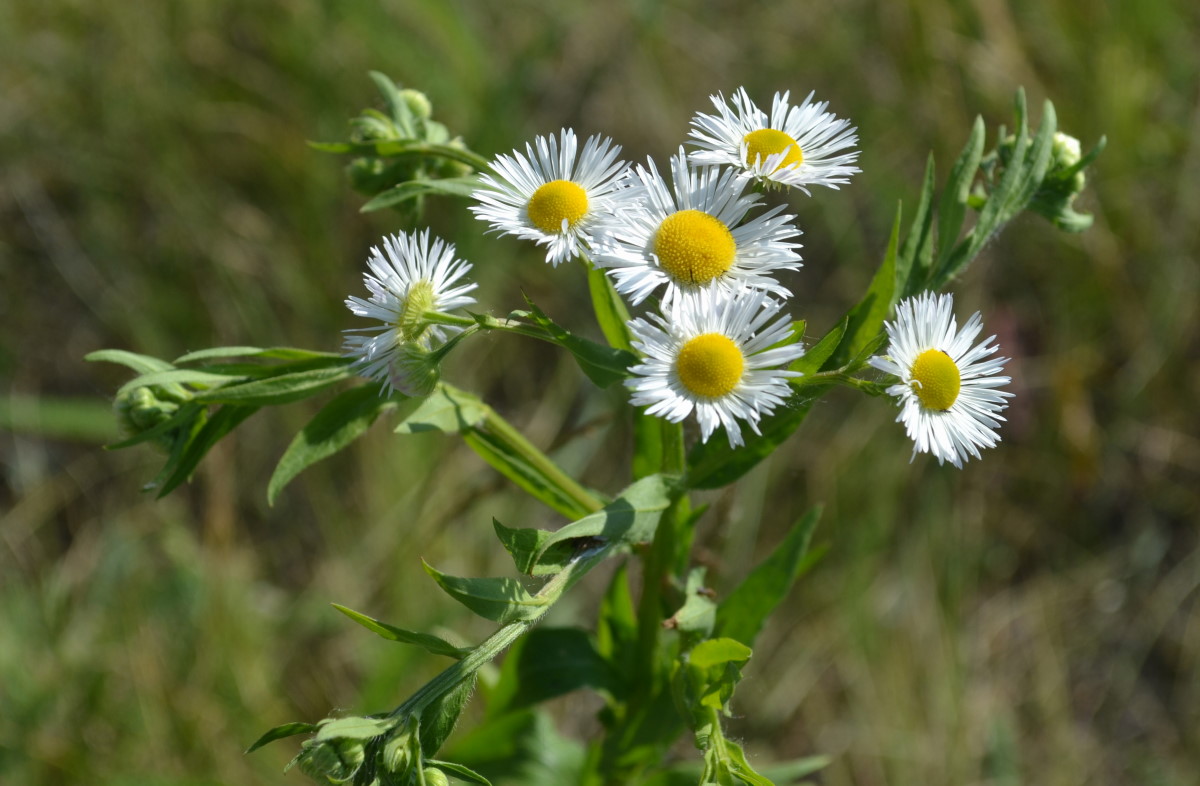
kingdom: Plantae
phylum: Tracheophyta
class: Magnoliopsida
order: Asterales
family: Asteraceae
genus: Symphyotrichum
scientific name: Symphyotrichum lanceolatum
